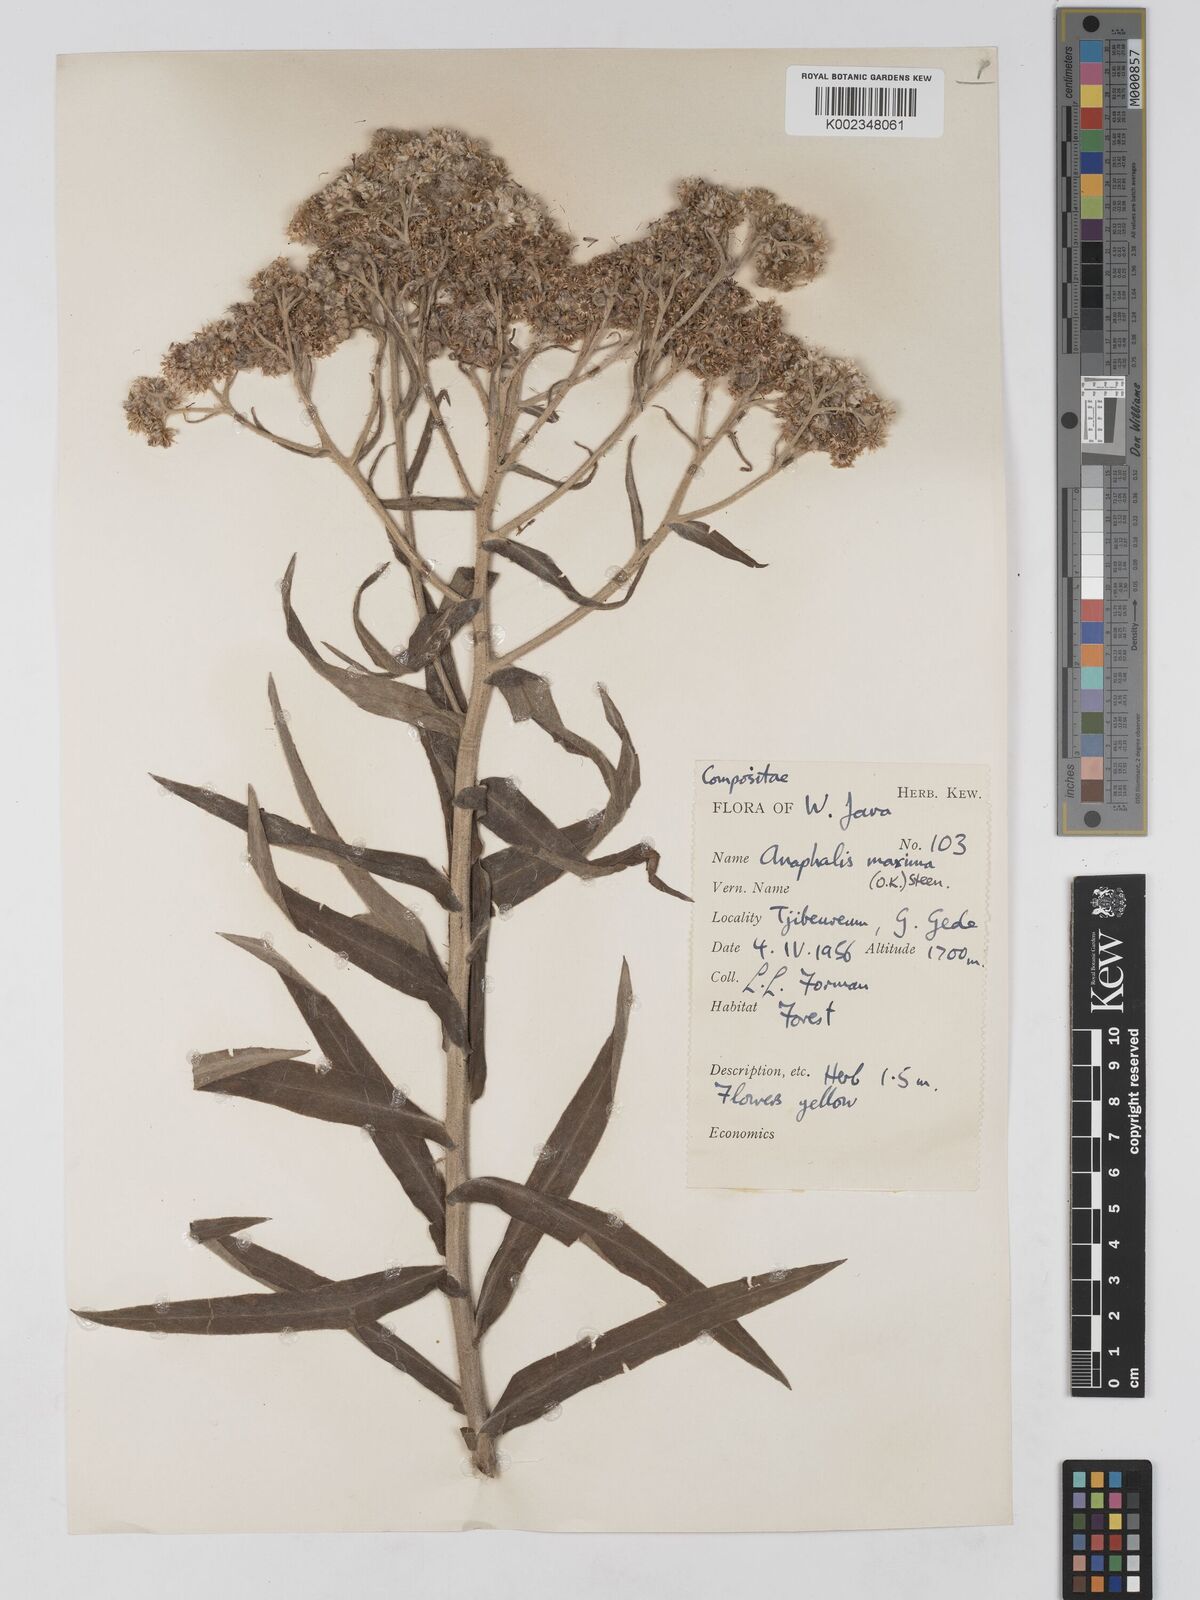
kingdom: Plantae
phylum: Tracheophyta
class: Magnoliopsida
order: Asterales
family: Asteraceae
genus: Anaphalis
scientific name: Anaphalis maxima
